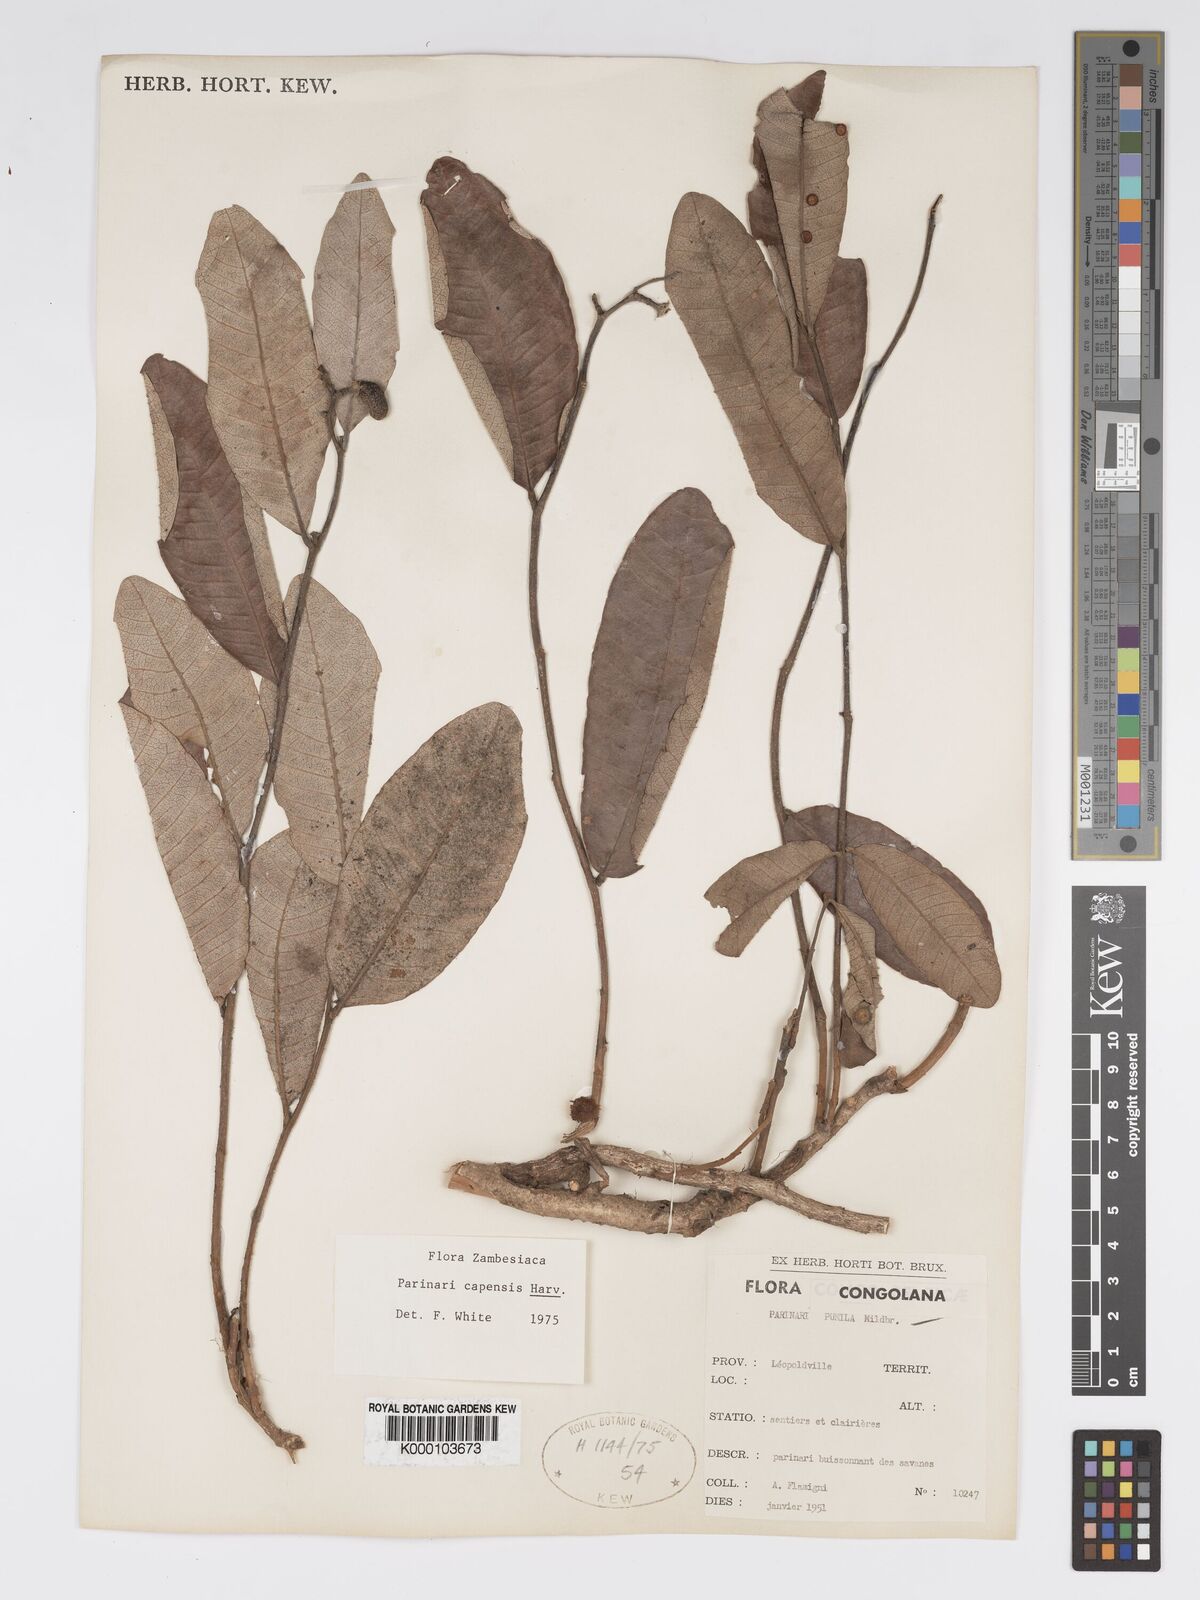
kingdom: Plantae
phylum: Tracheophyta
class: Magnoliopsida
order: Malpighiales
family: Chrysobalanaceae
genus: Parinari
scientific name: Parinari capensis
